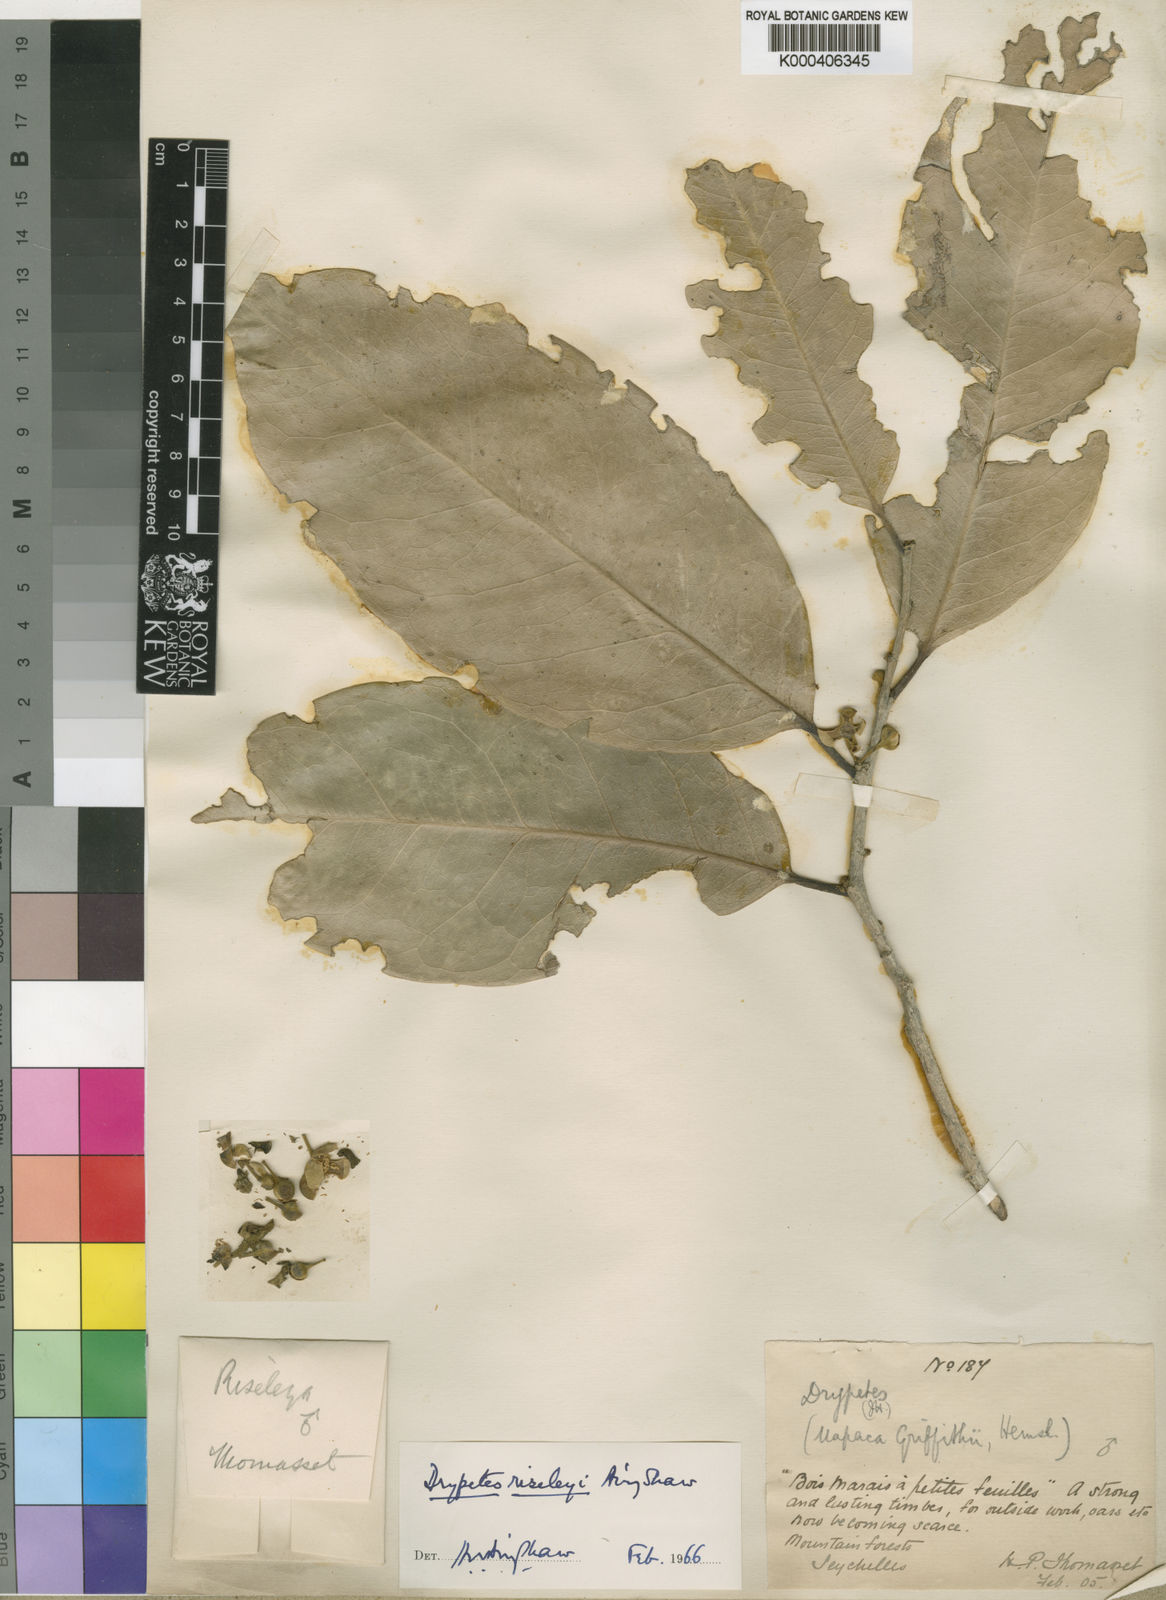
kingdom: Plantae
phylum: Tracheophyta
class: Magnoliopsida
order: Malpighiales
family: Putranjivaceae
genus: Drypetes
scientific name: Drypetes riseleyi
